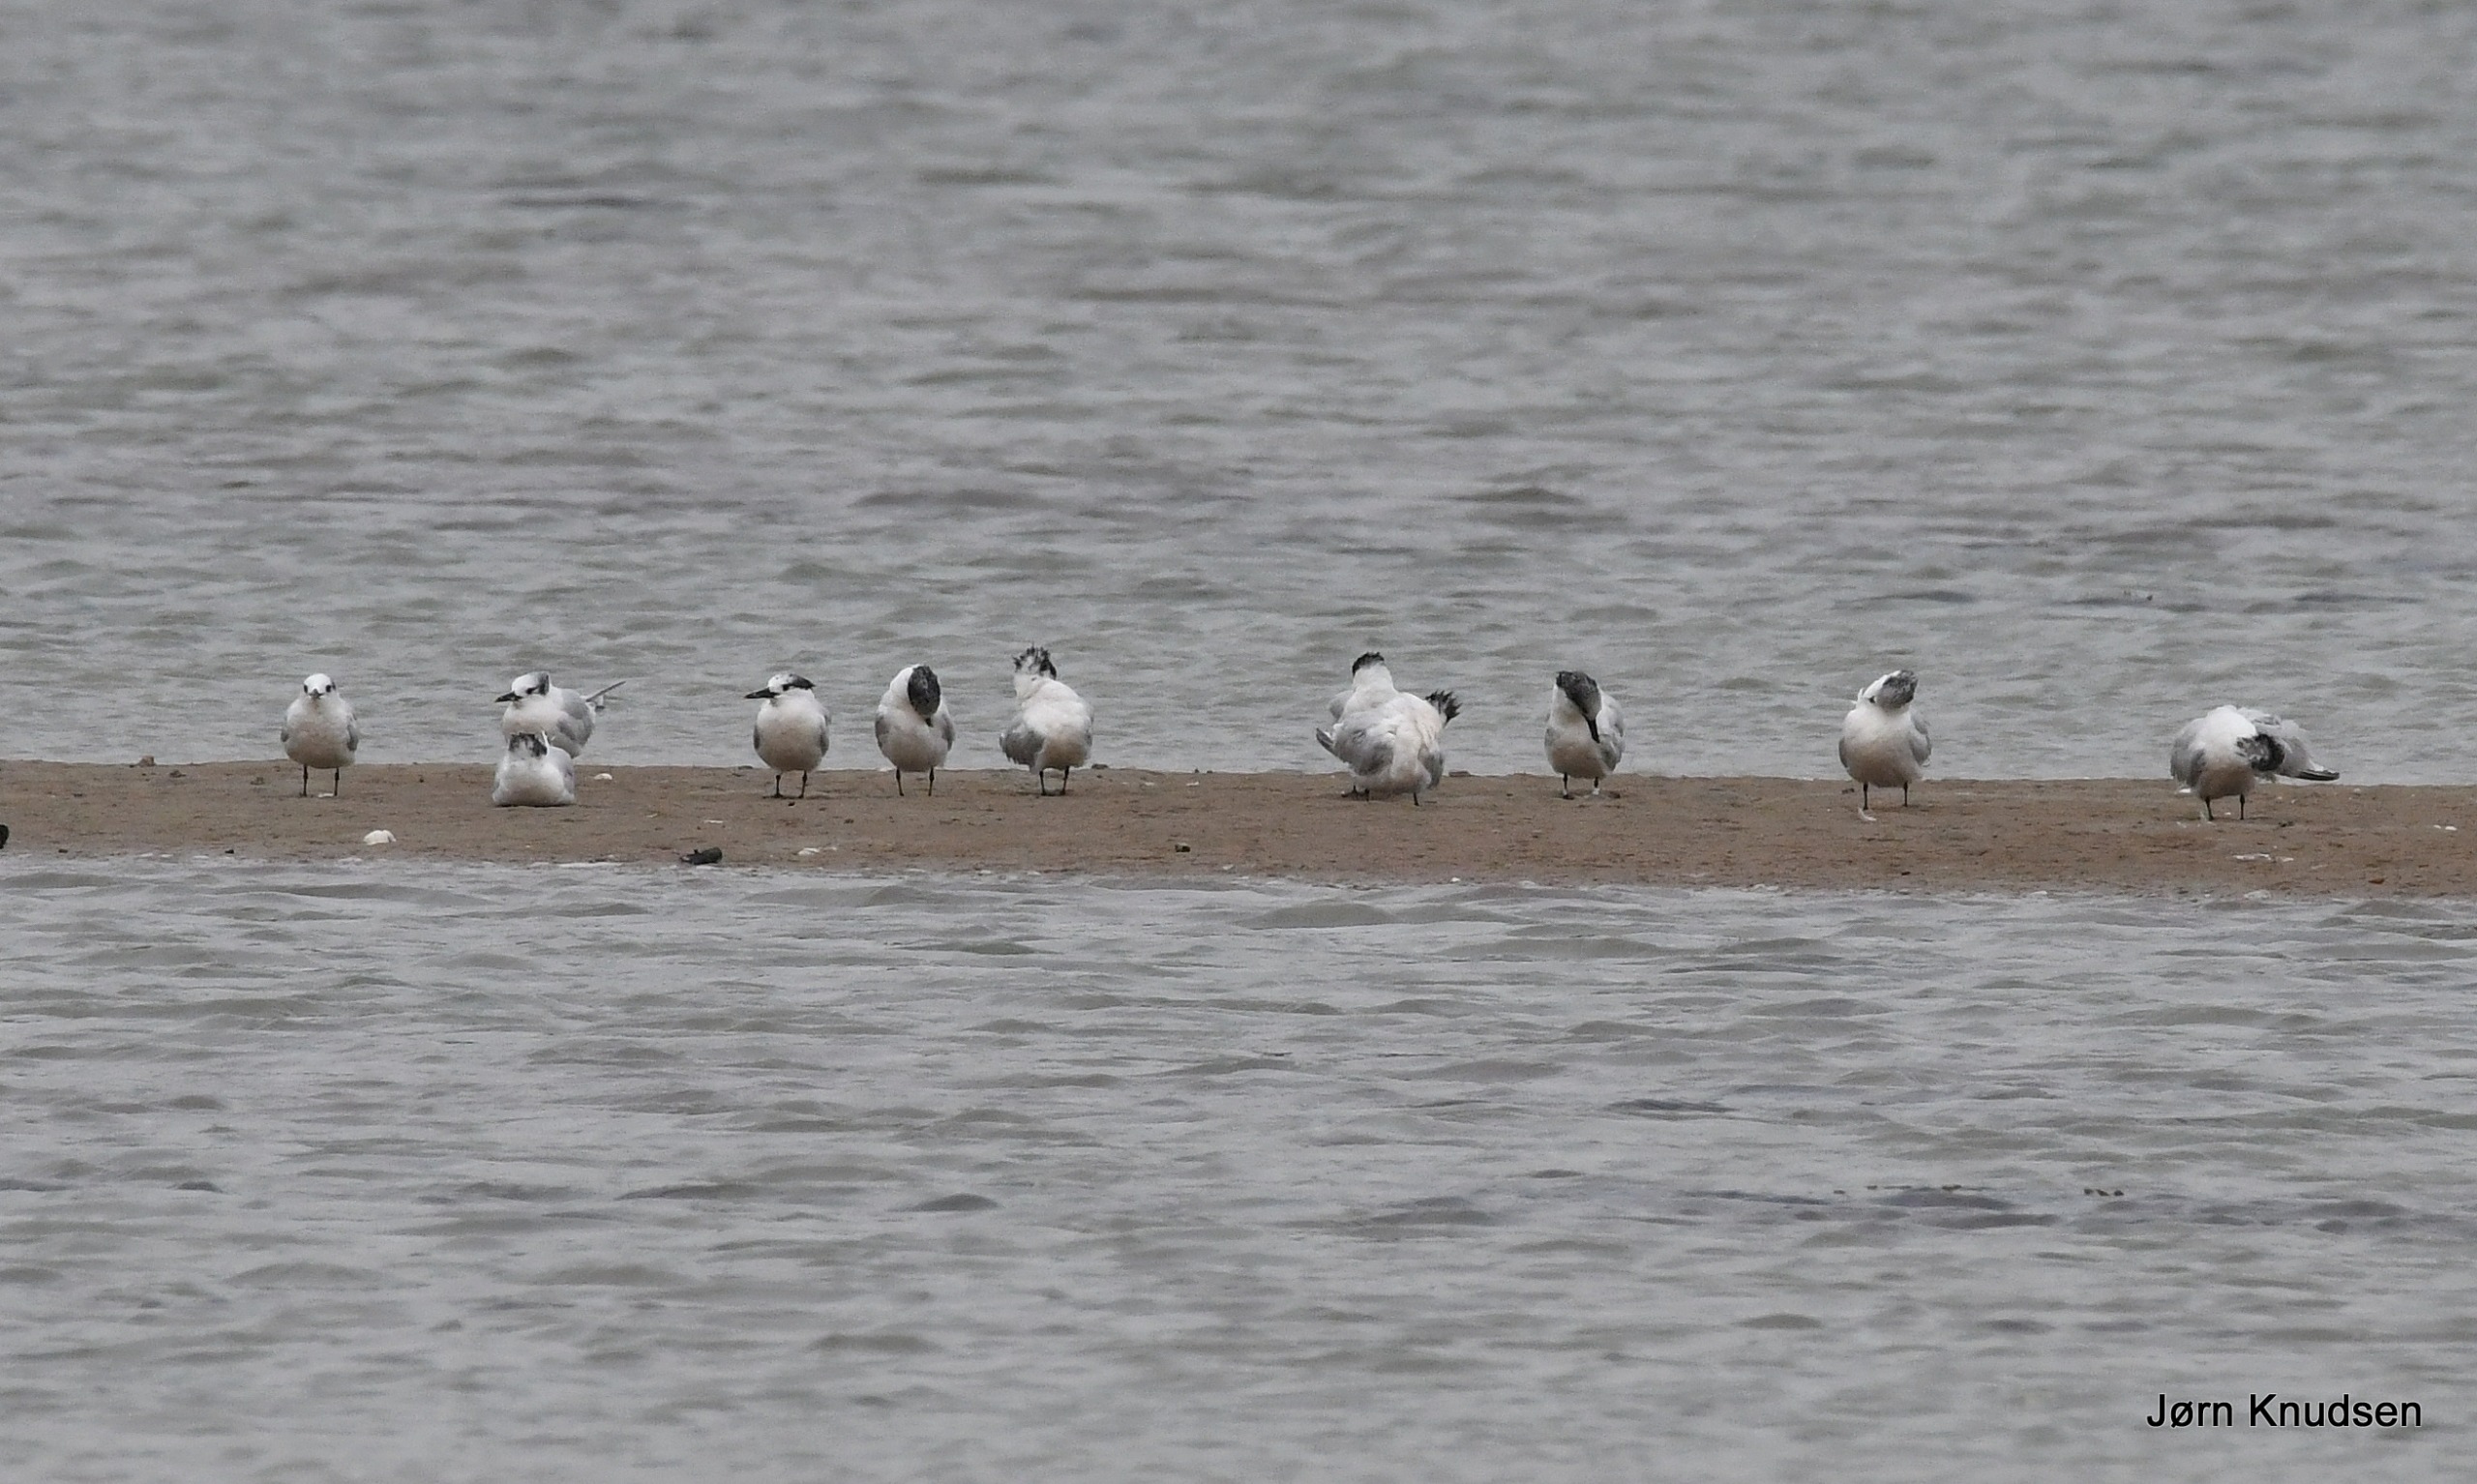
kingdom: Animalia
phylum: Chordata
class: Aves
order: Charadriiformes
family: Laridae
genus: Thalasseus
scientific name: Thalasseus sandvicensis
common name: Splitterne
